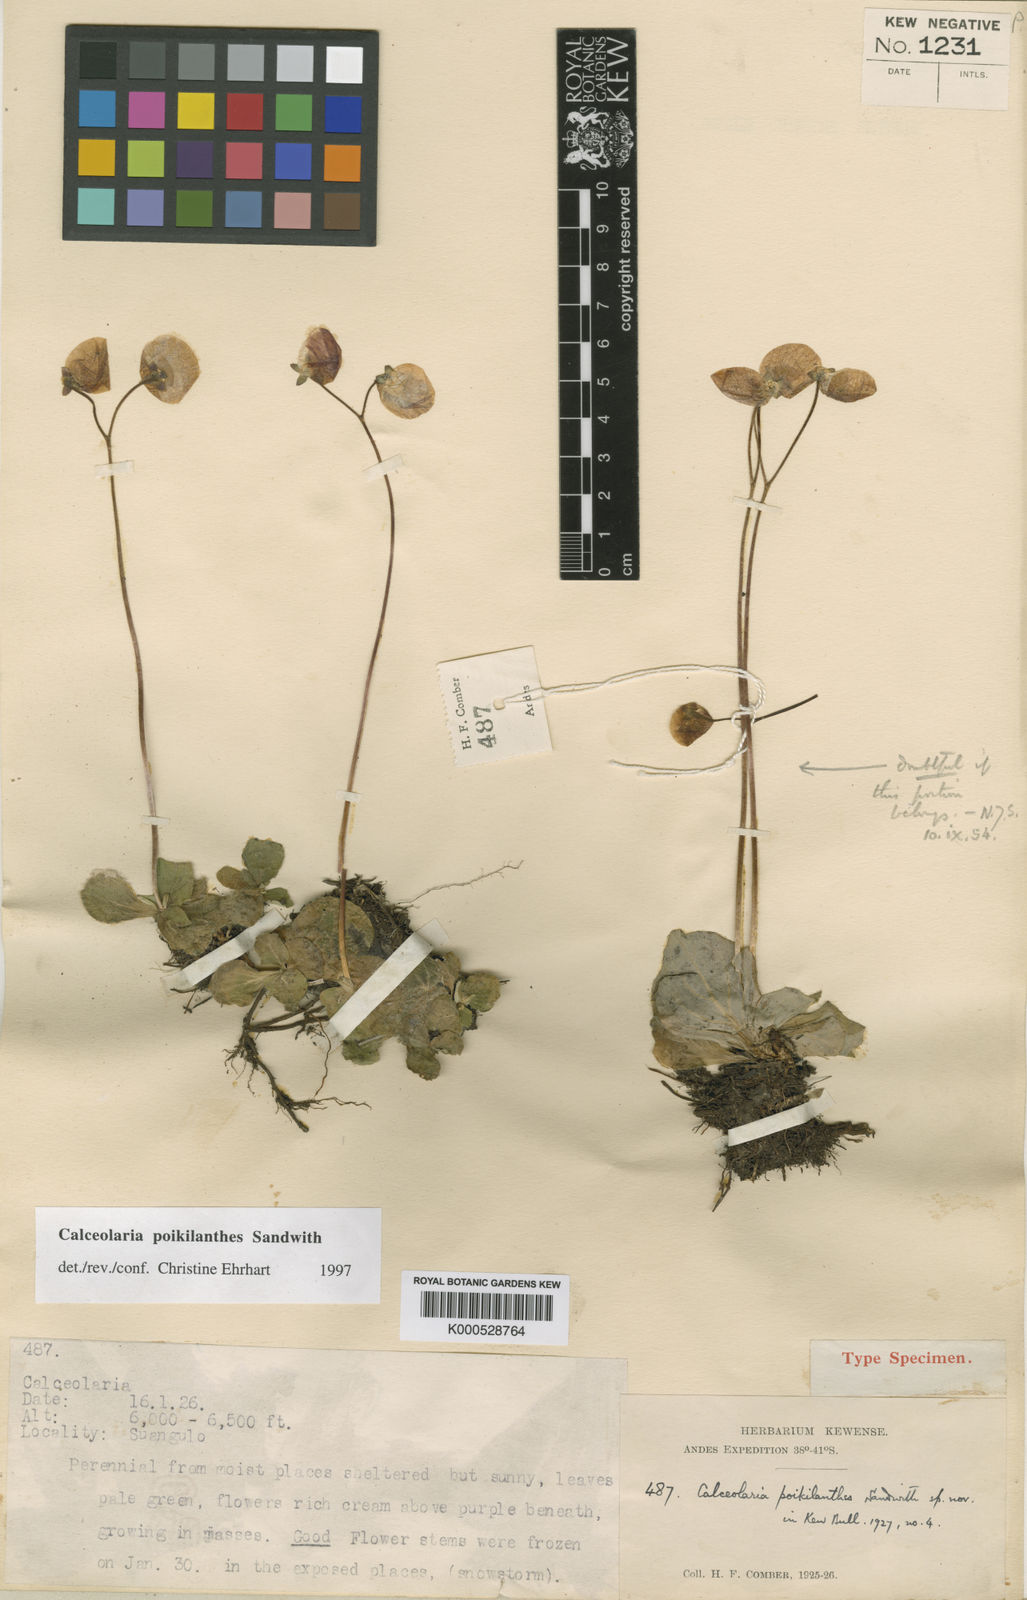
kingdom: Plantae
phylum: Tracheophyta
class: Magnoliopsida
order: Lamiales
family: Calceolariaceae
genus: Calceolaria
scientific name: Calceolaria poikilanthes
